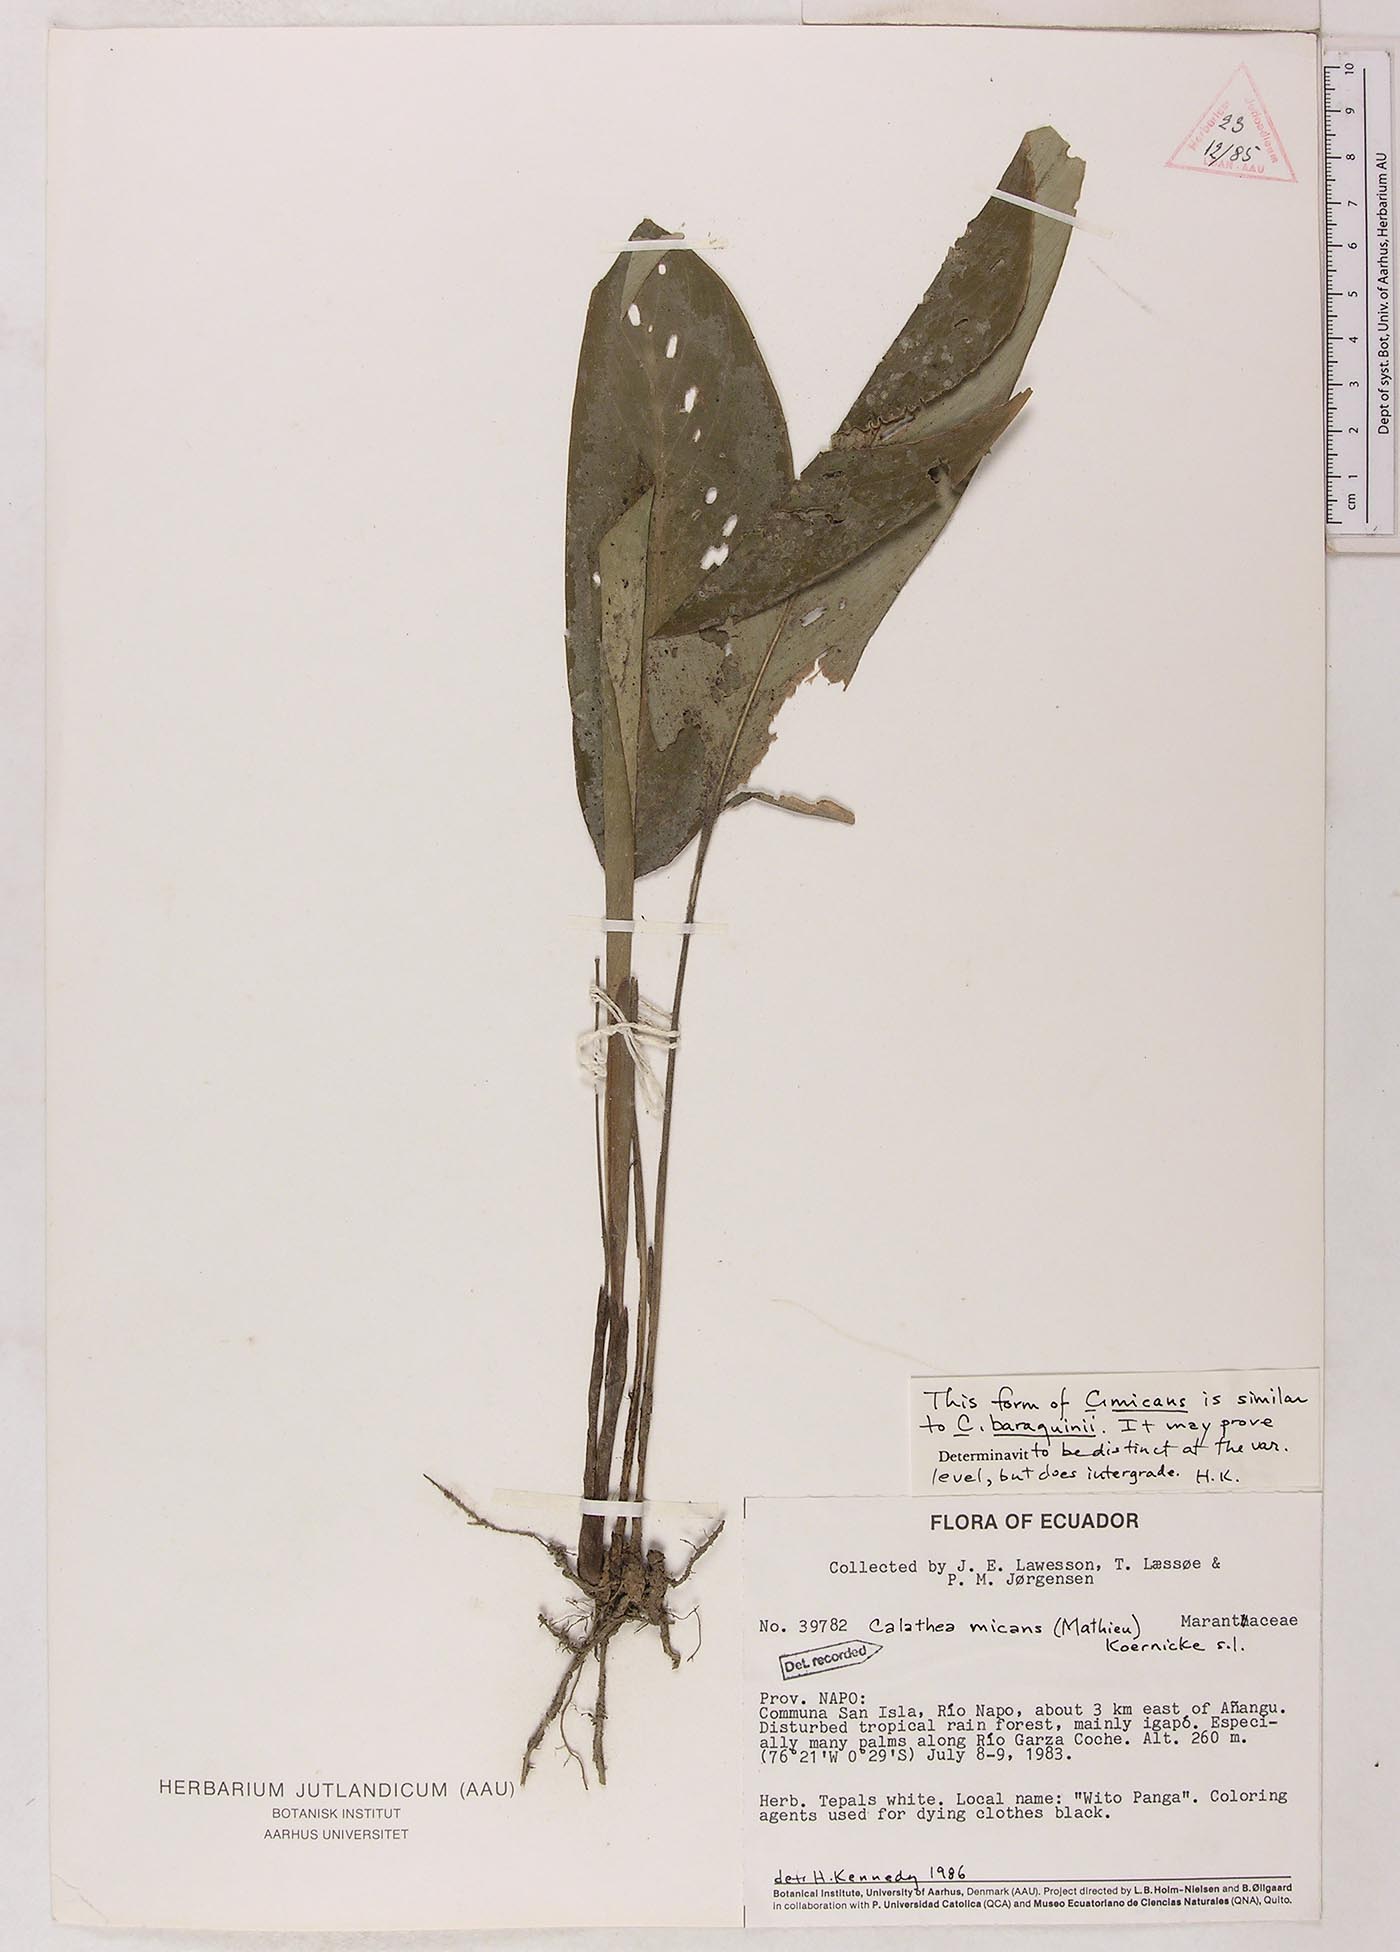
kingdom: Plantae
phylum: Tracheophyta
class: Liliopsida
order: Zingiberales
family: Marantaceae
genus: Goeppertia
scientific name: Goeppertia micans
